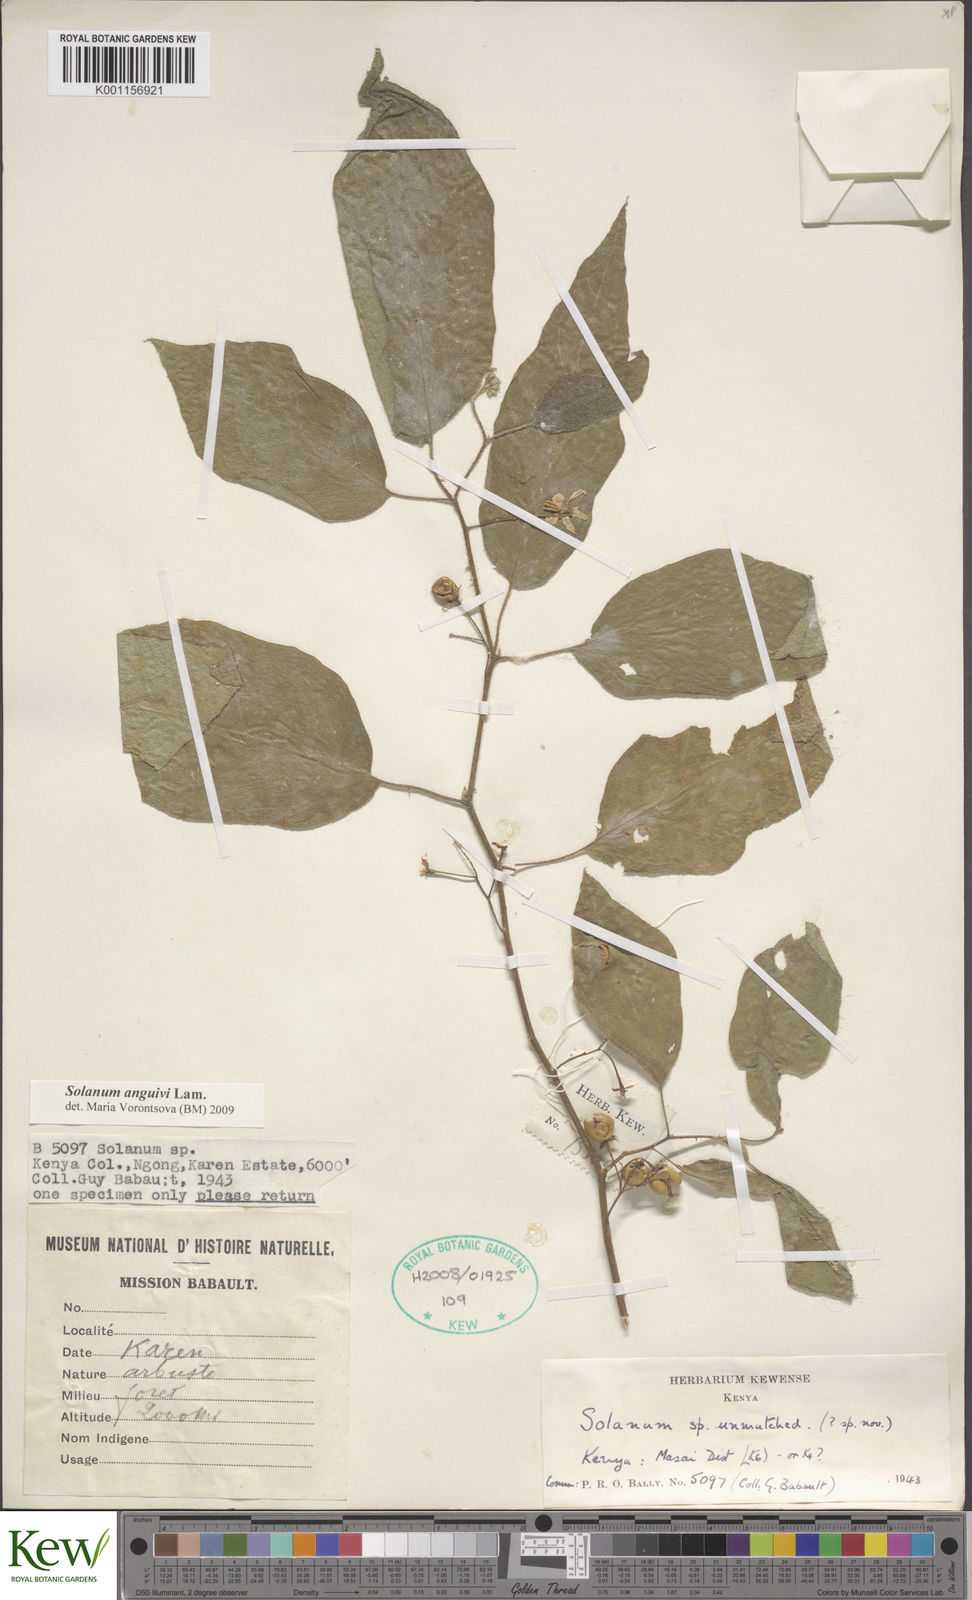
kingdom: Plantae
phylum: Tracheophyta
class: Magnoliopsida
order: Solanales
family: Solanaceae
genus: Solanum
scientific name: Solanum anguivi
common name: Forest bitterberry
